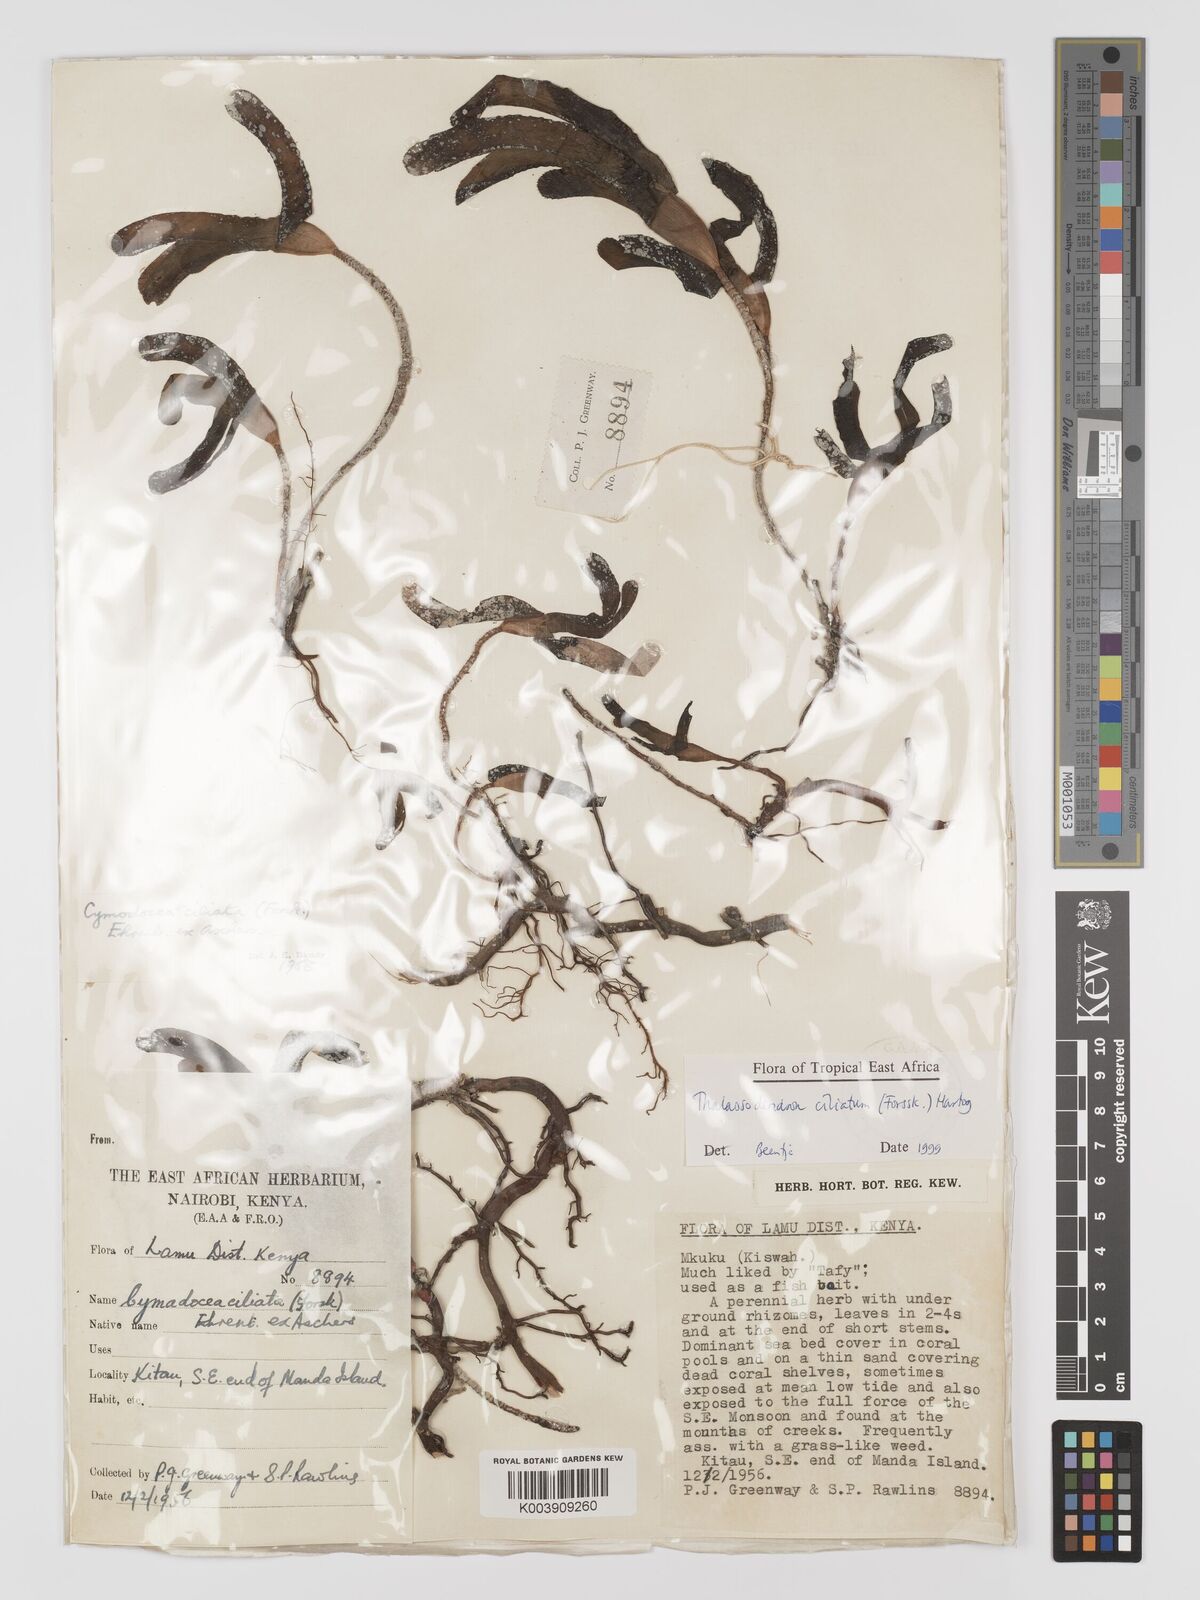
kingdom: Plantae
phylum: Tracheophyta
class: Liliopsida
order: Alismatales
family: Cymodoceaceae
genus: Thalassodendron
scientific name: Thalassodendron ciliatum
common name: Species code: tc
